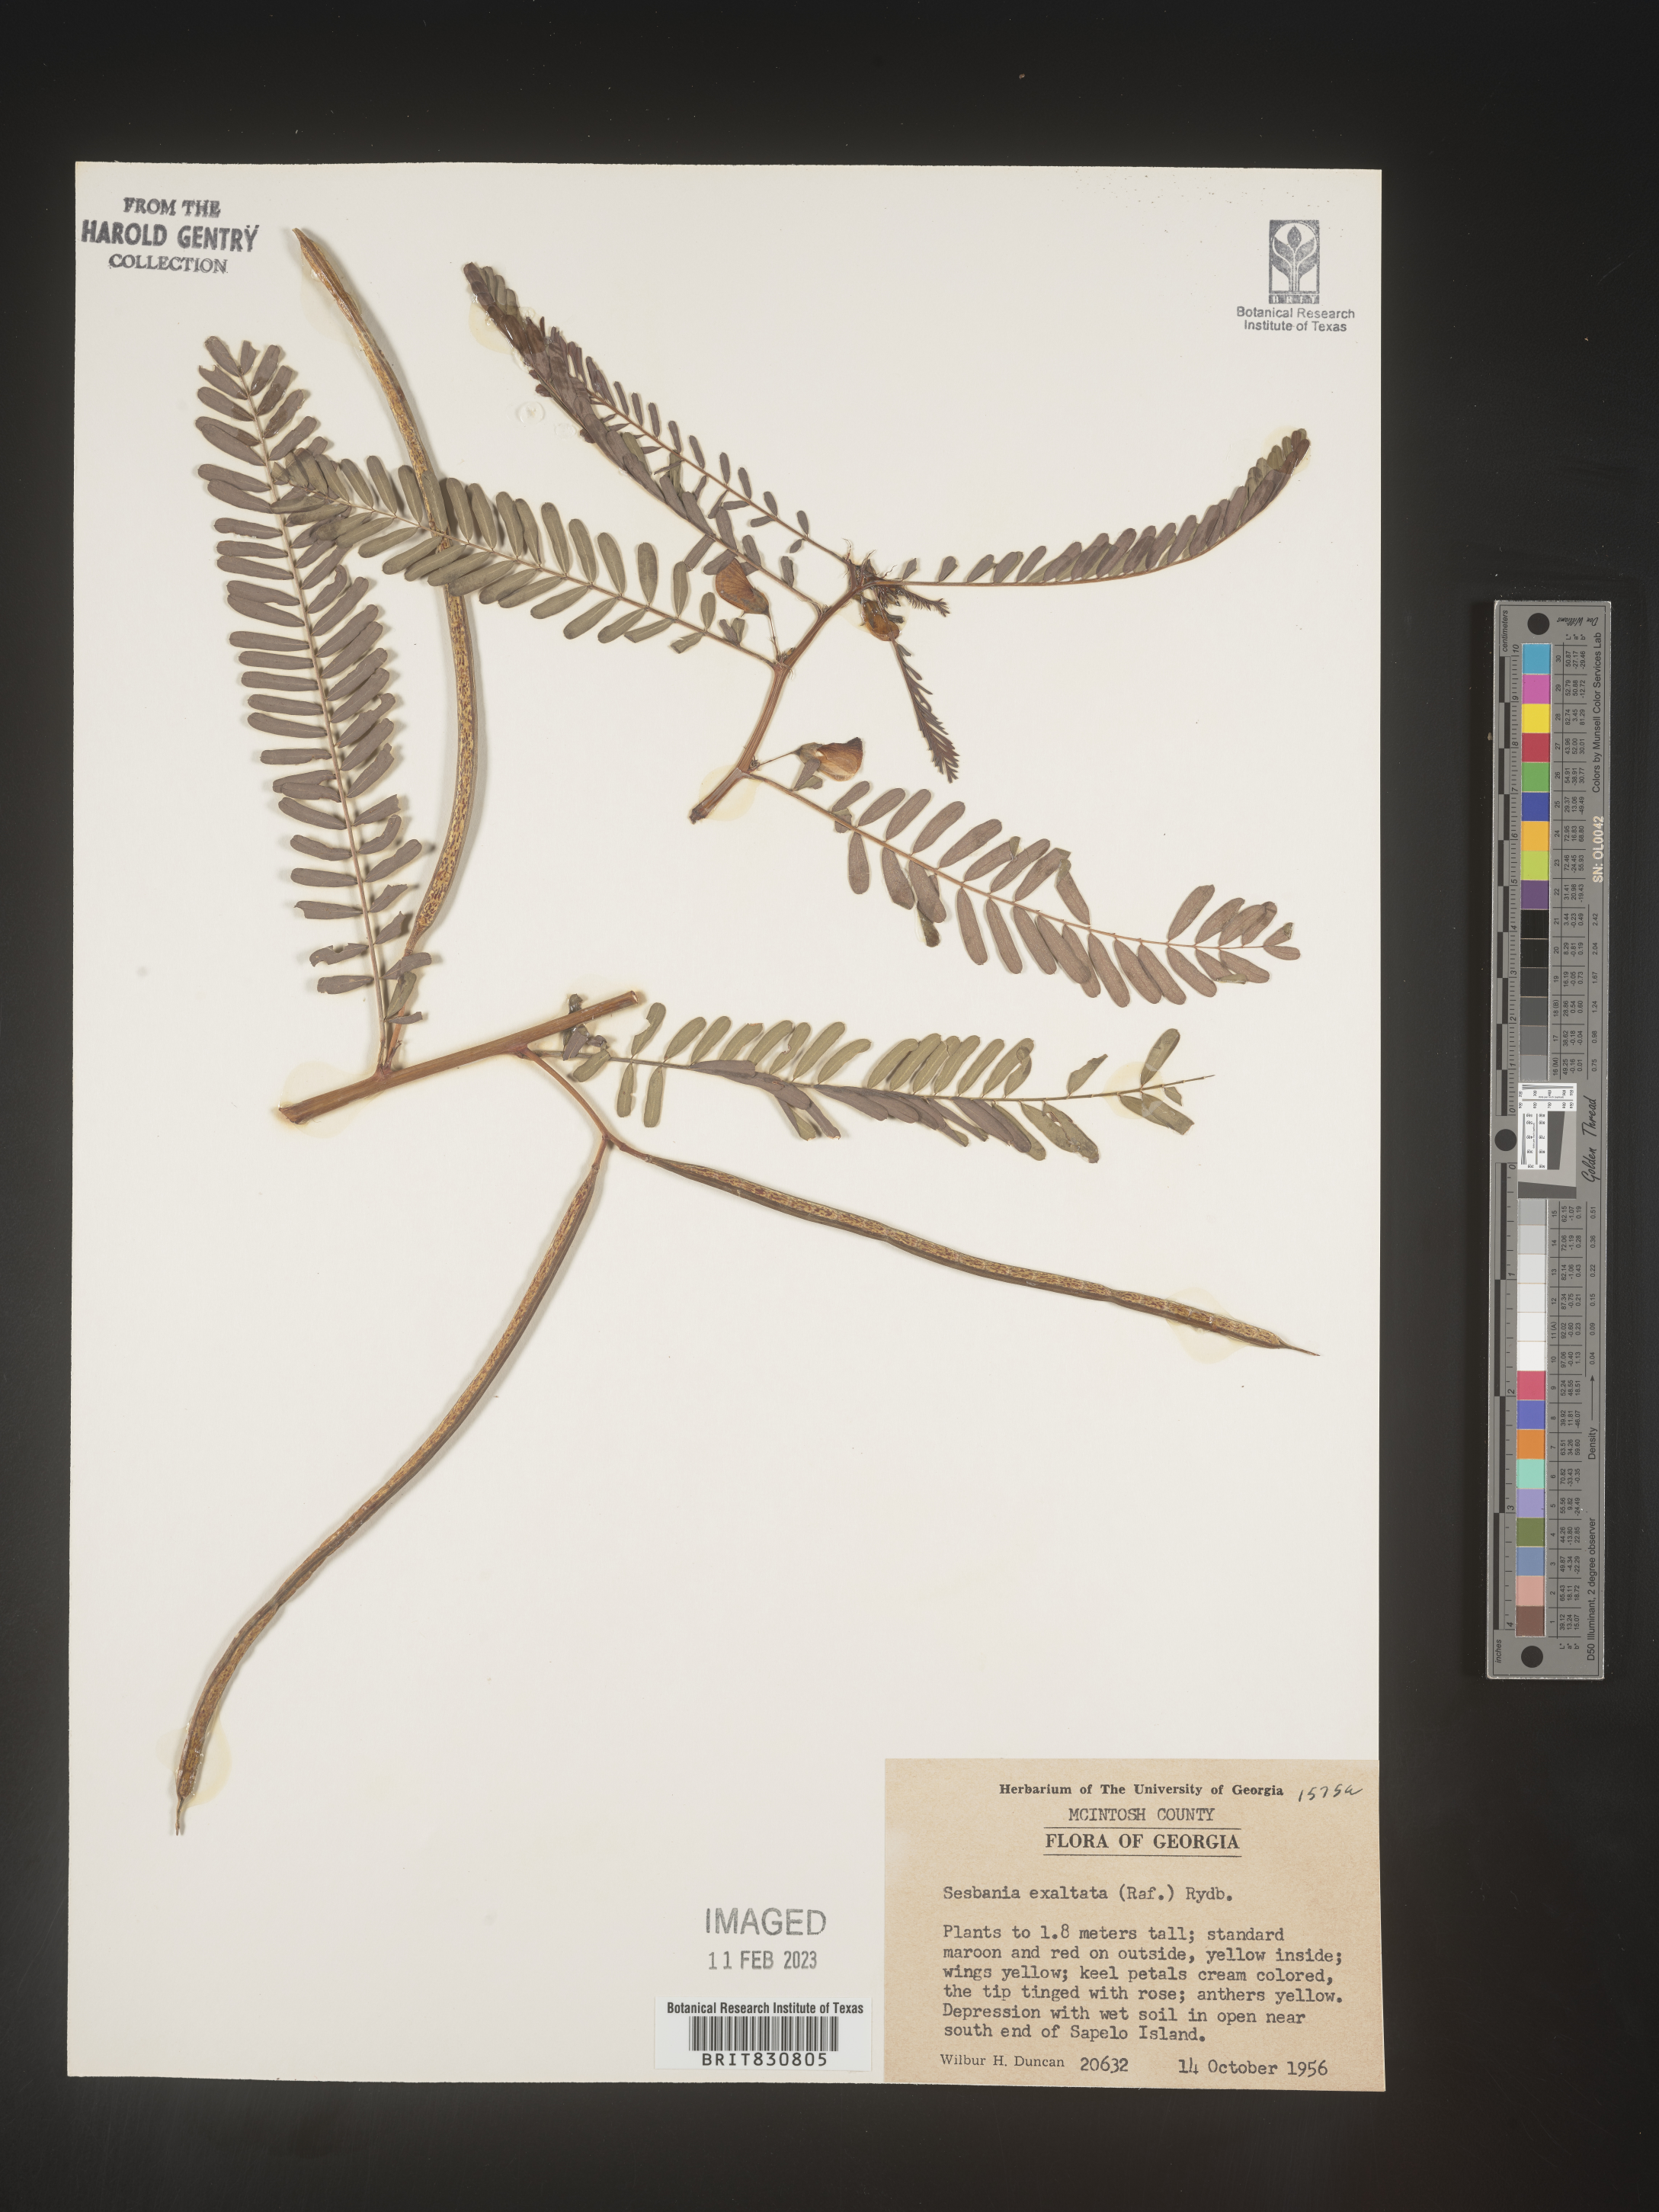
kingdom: Plantae
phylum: Tracheophyta
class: Magnoliopsida
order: Fabales
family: Fabaceae
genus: Sesbania
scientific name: Sesbania herbacea
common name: Bigpod sesbania
